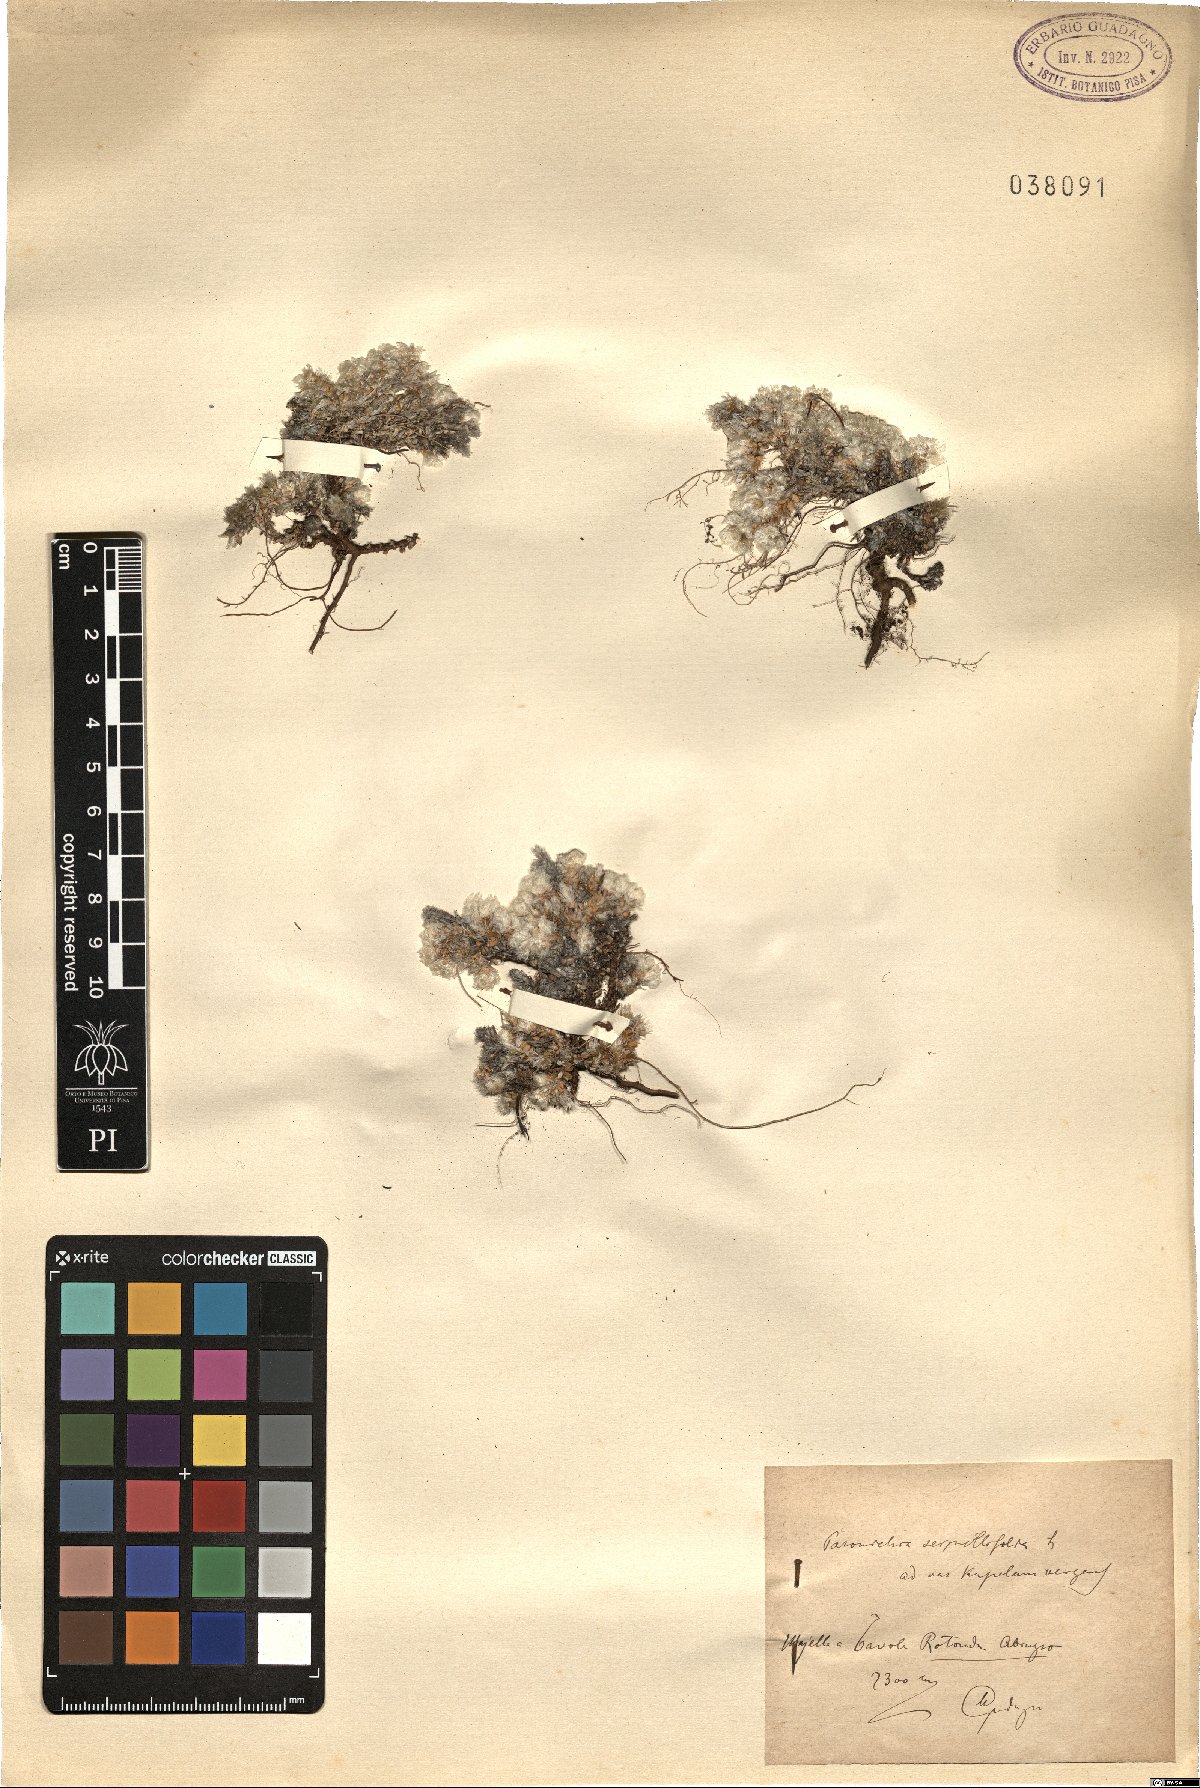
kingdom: Plantae
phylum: Tracheophyta
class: Magnoliopsida
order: Caryophyllales
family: Caryophyllaceae
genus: Paronychia
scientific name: Paronychia kapela
